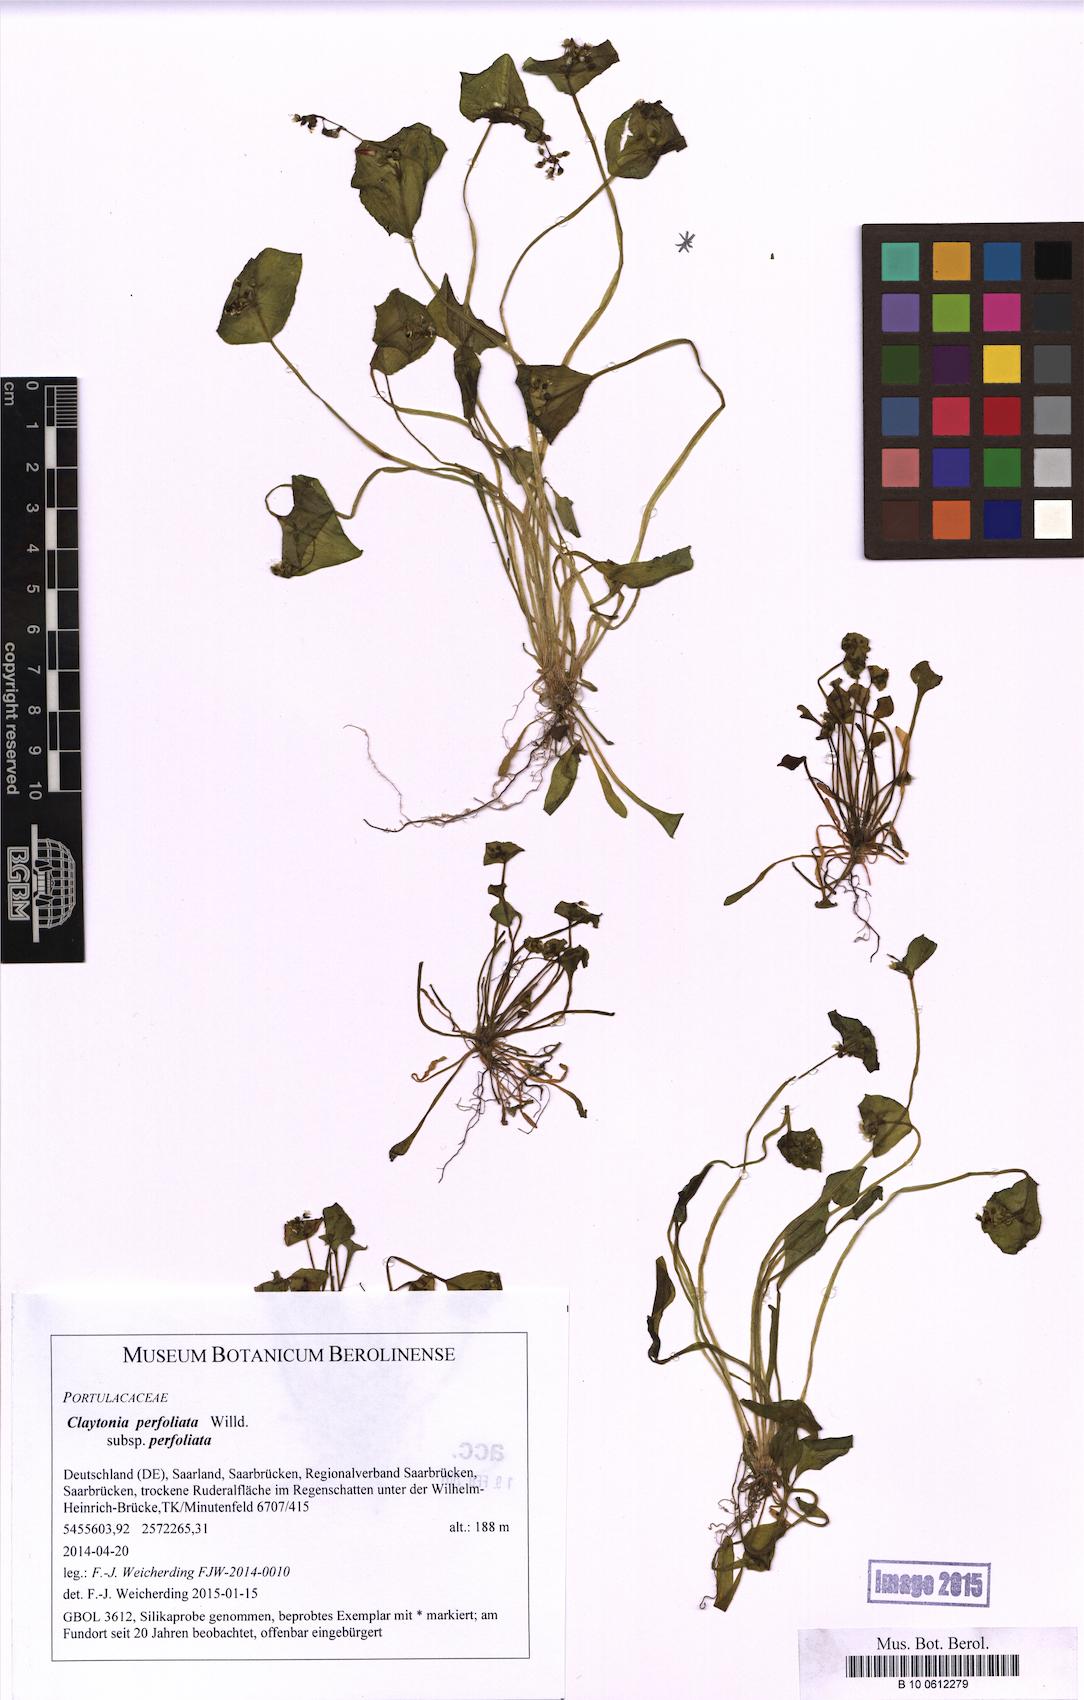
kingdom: Plantae
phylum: Tracheophyta
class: Magnoliopsida
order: Caryophyllales
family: Montiaceae
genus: Claytonia
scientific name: Claytonia perfoliata
